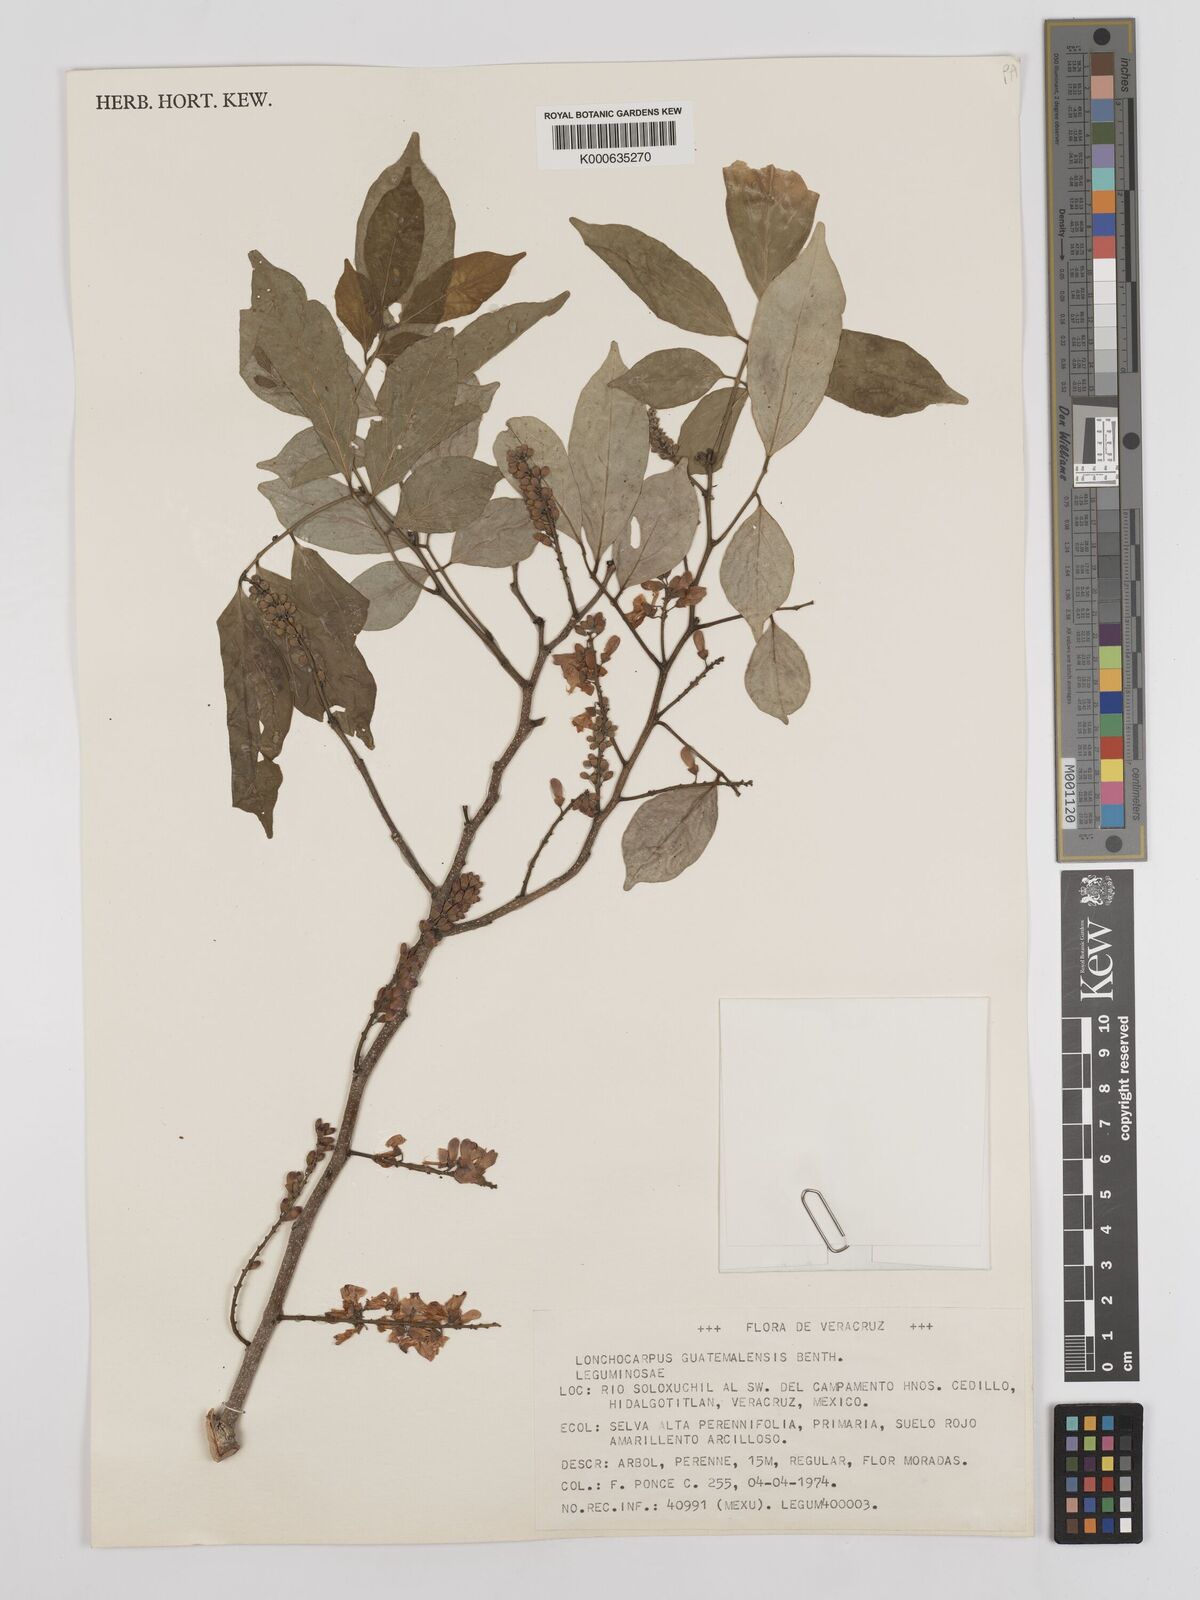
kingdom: Plantae
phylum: Tracheophyta
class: Magnoliopsida
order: Fabales
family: Fabaceae
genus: Lonchocarpus
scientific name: Lonchocarpus guatemalensis
